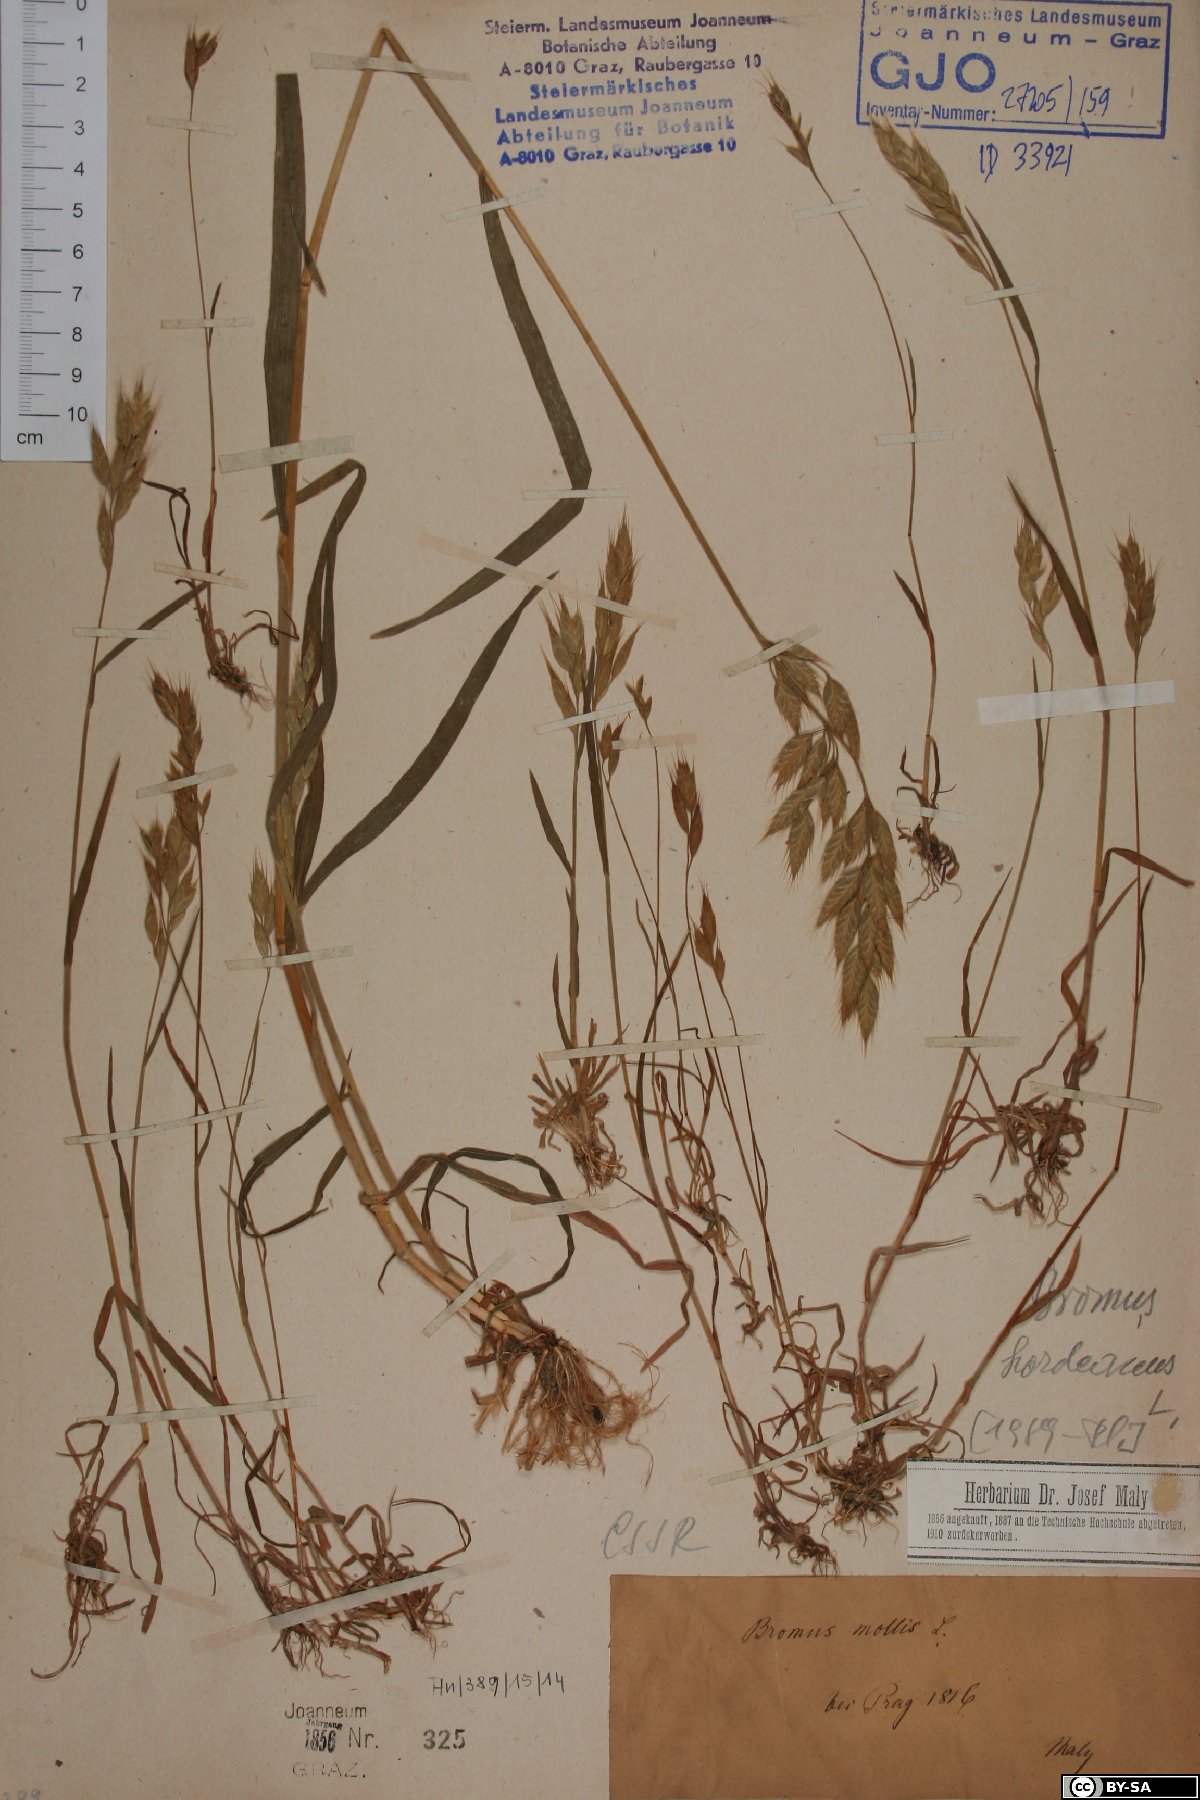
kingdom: Plantae
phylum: Tracheophyta
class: Liliopsida
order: Poales
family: Poaceae
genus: Bromus
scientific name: Bromus hordeaceus
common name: Soft brome
